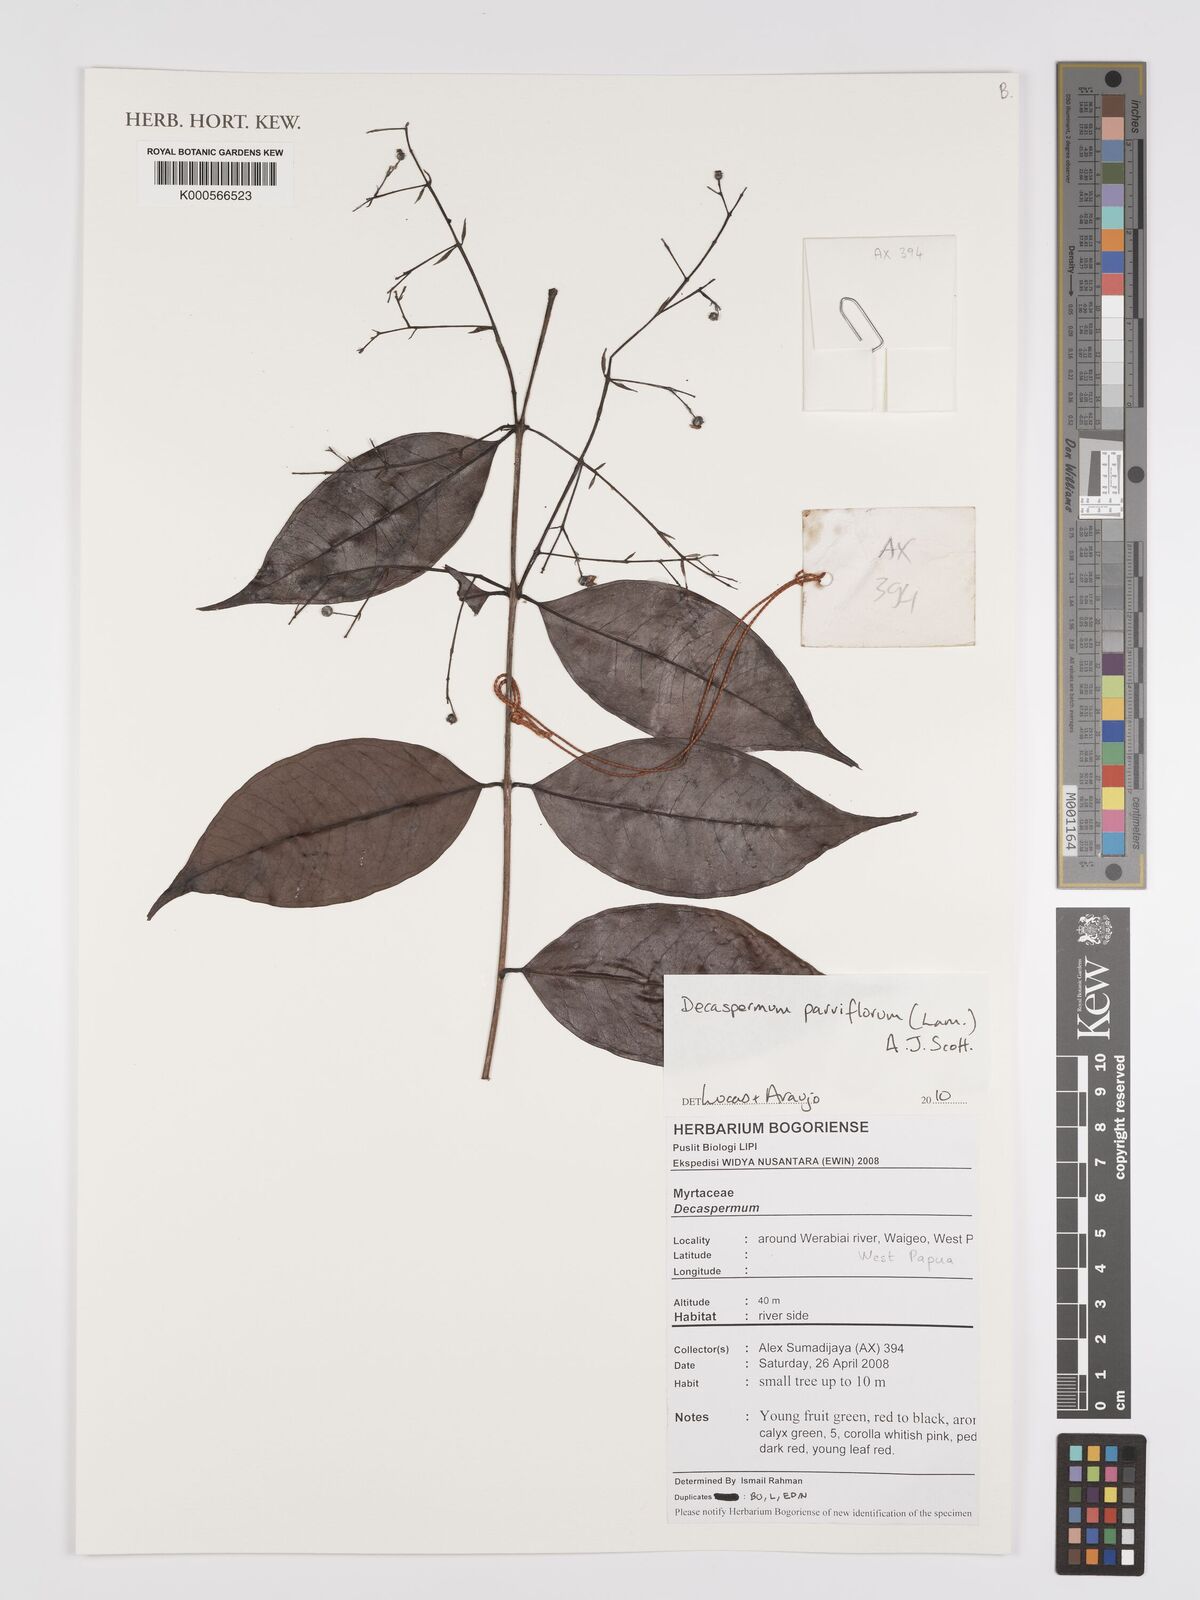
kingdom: Plantae
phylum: Tracheophyta
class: Magnoliopsida
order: Myrtales
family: Myrtaceae
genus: Decaspermum
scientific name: Decaspermum parviflorum
